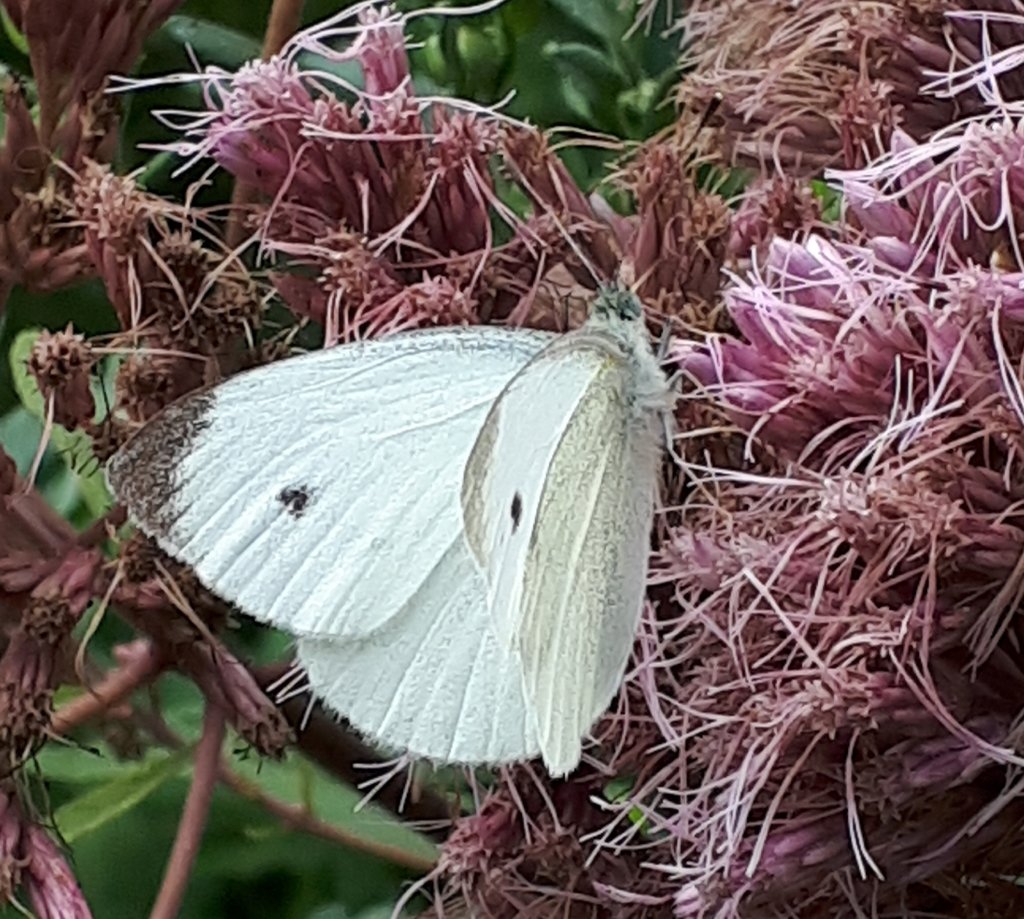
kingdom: Animalia
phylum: Arthropoda
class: Insecta
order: Lepidoptera
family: Pieridae
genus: Pieris
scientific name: Pieris rapae
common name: Cabbage White
